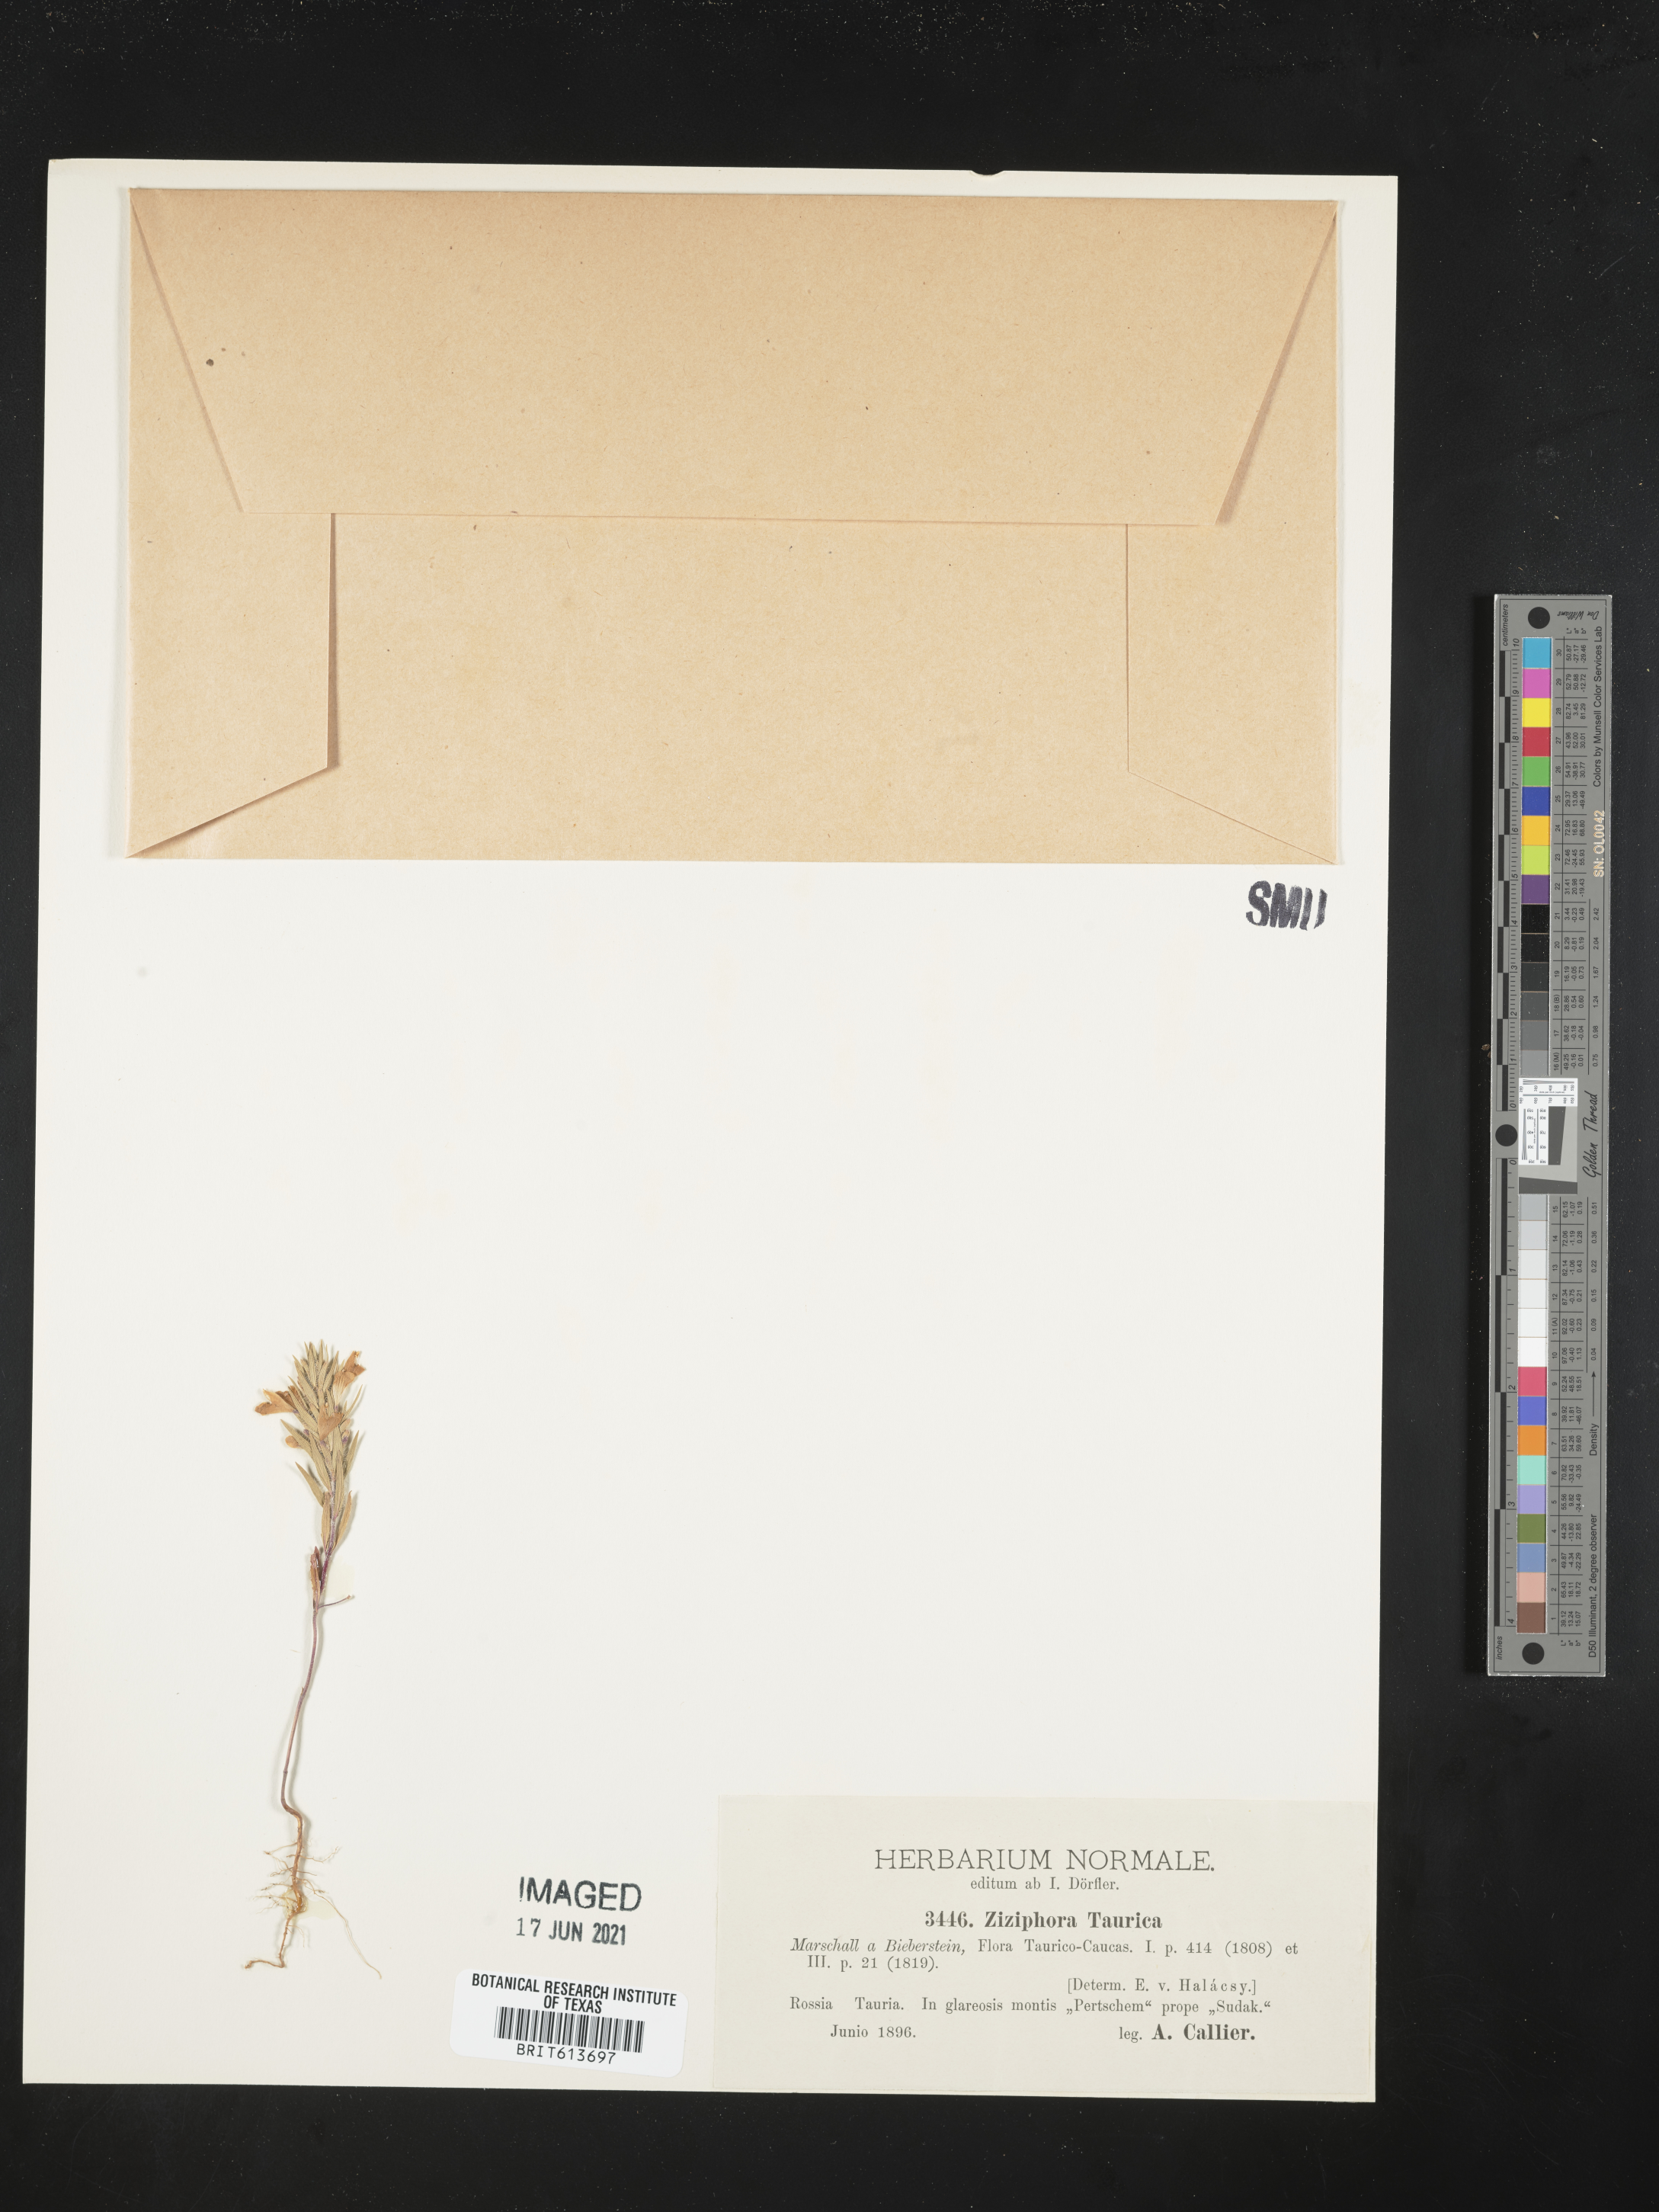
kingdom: Plantae
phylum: Tracheophyta
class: Magnoliopsida
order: Lamiales
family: Lamiaceae
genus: Ziziphora
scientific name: Ziziphora taurica
